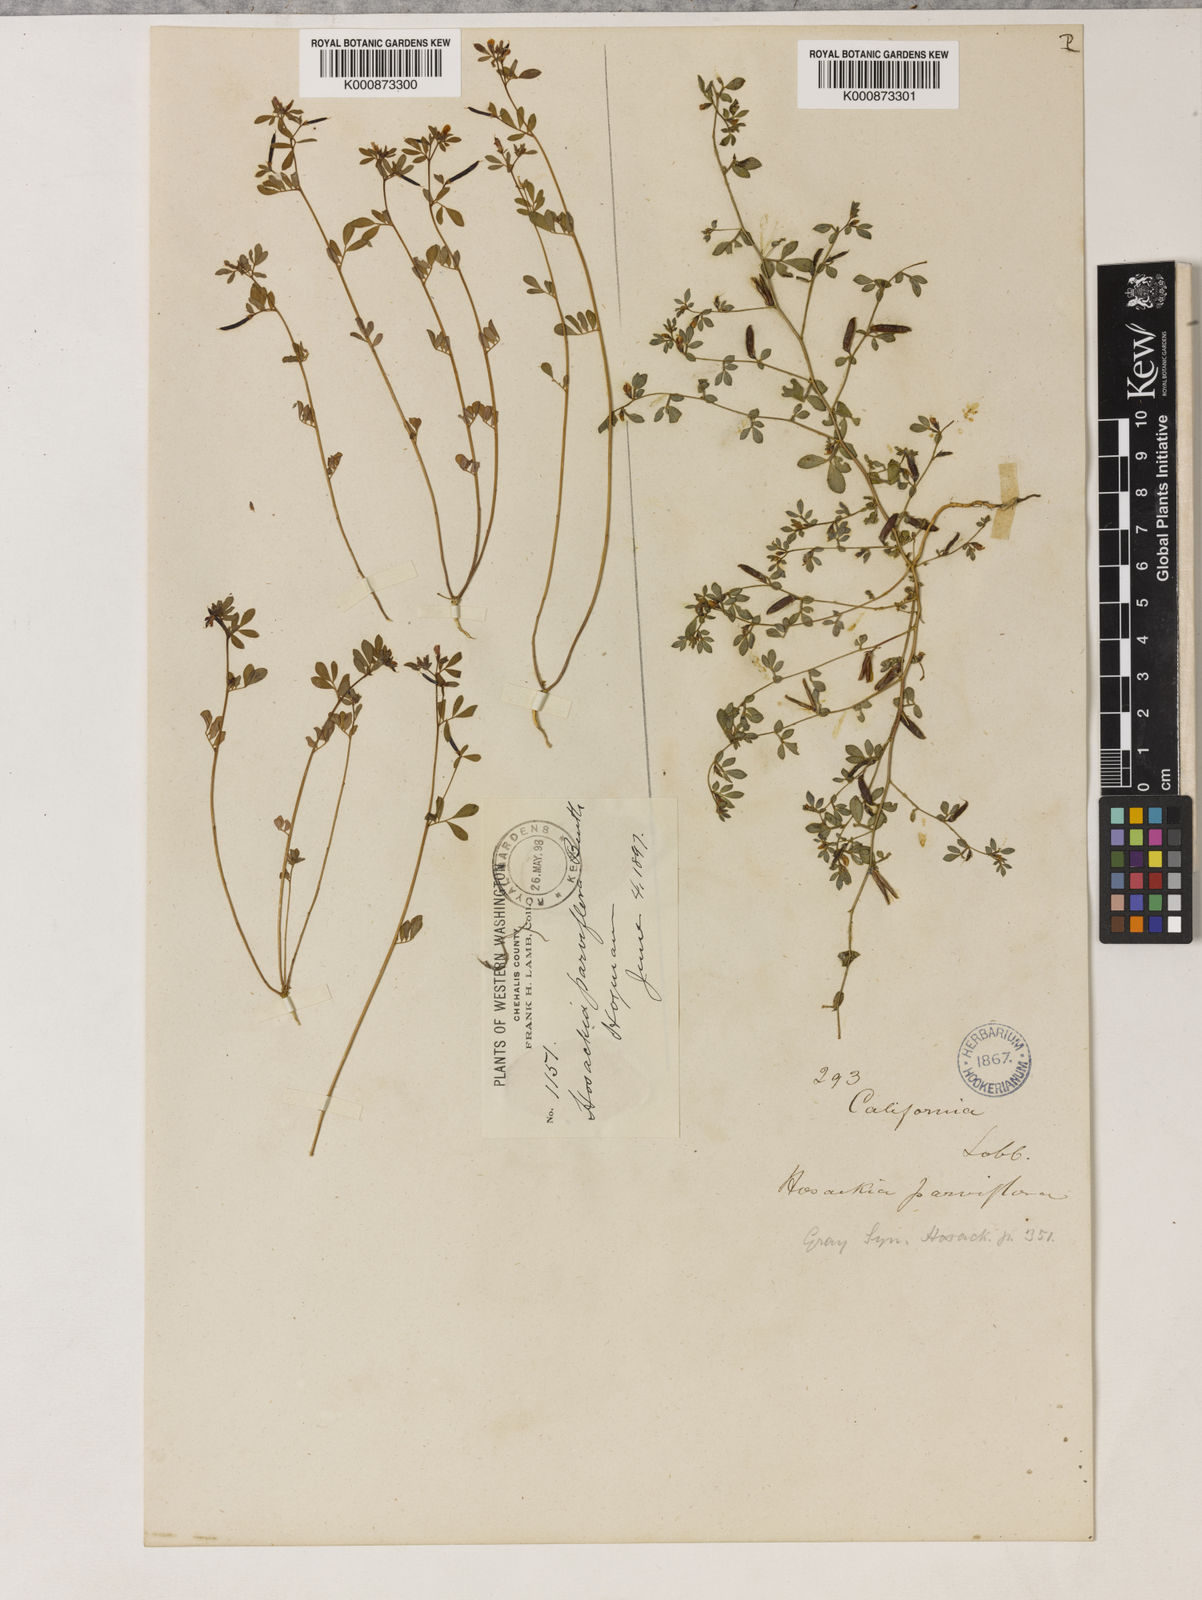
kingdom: Plantae
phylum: Tracheophyta
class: Magnoliopsida
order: Fabales
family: Fabaceae
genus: Acmispon
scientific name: Acmispon parviflorus
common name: Desert deer-vetch
